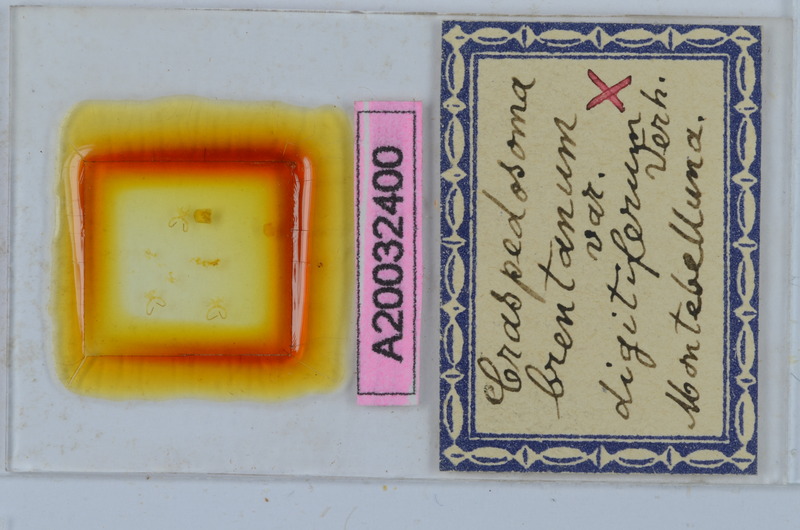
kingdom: Animalia
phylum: Arthropoda
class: Diplopoda
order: Chordeumatida
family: Craspedosomatidae
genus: Craspedosoma
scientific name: Craspedosoma brentanum
